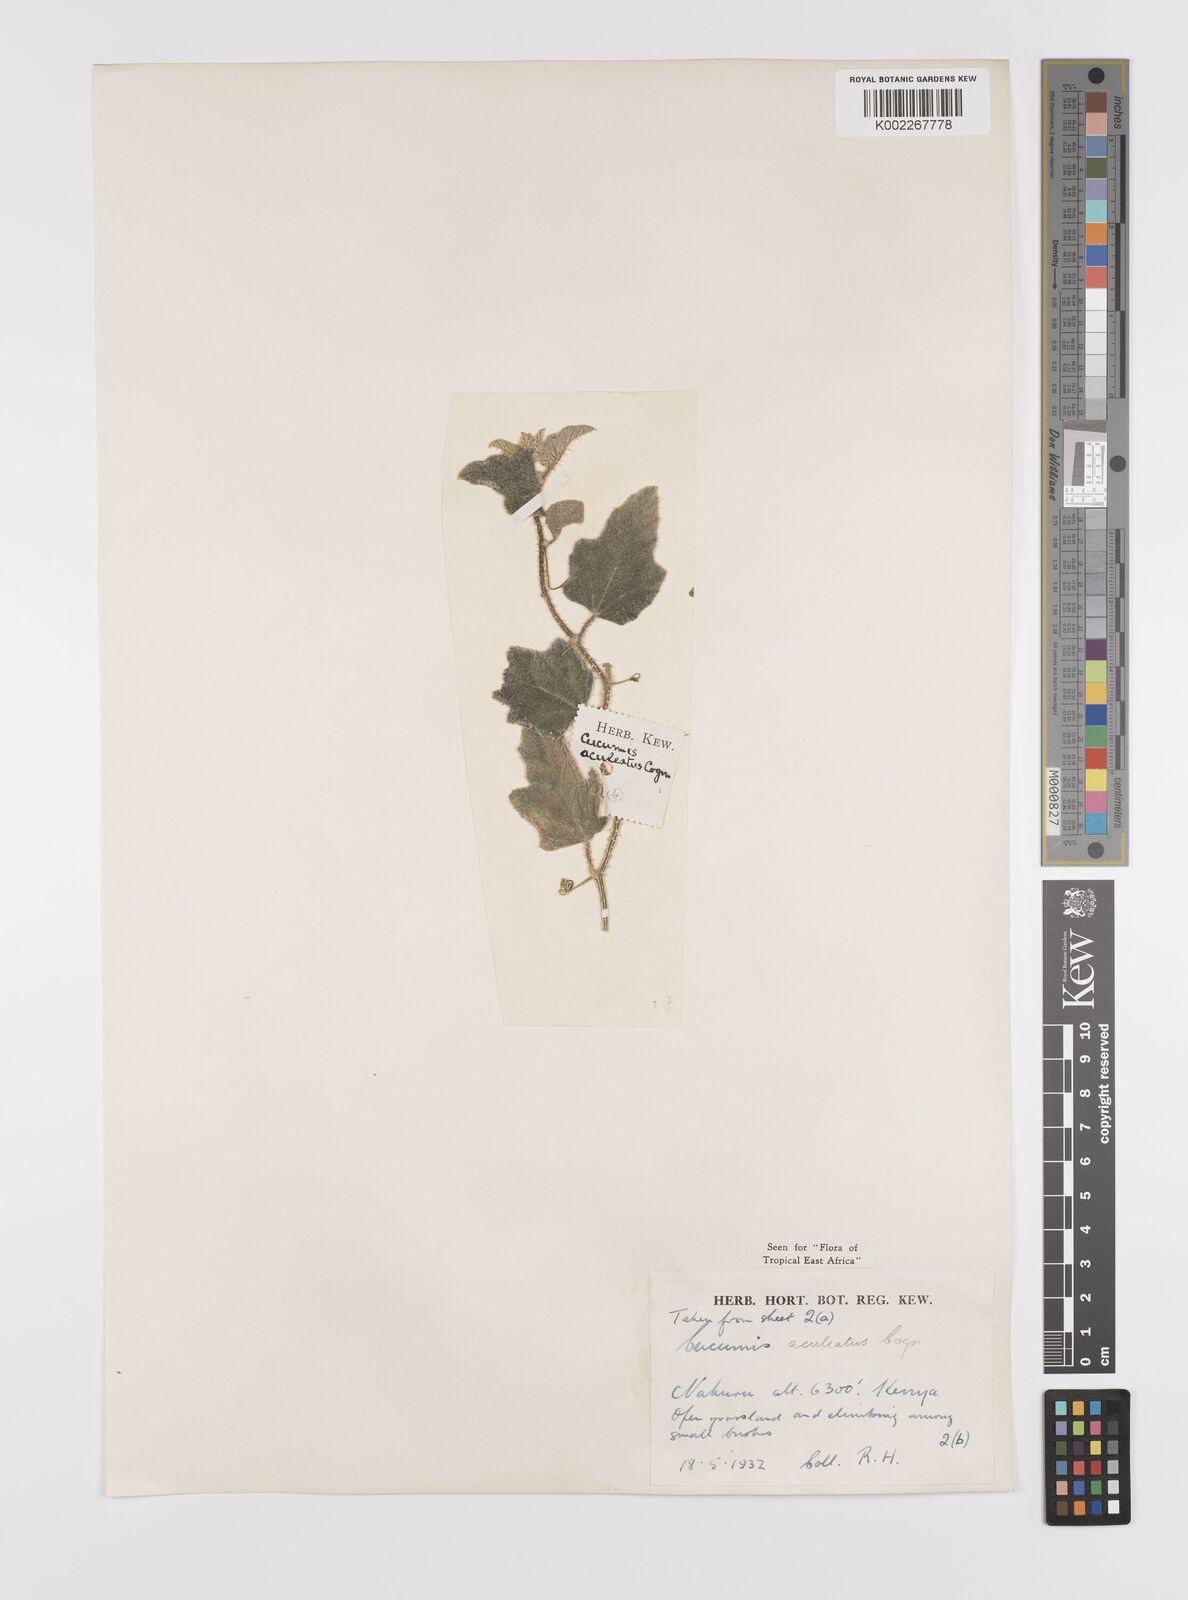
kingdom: Plantae
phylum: Tracheophyta
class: Magnoliopsida
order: Cucurbitales
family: Cucurbitaceae
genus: Cucumis
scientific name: Cucumis aculeatus
